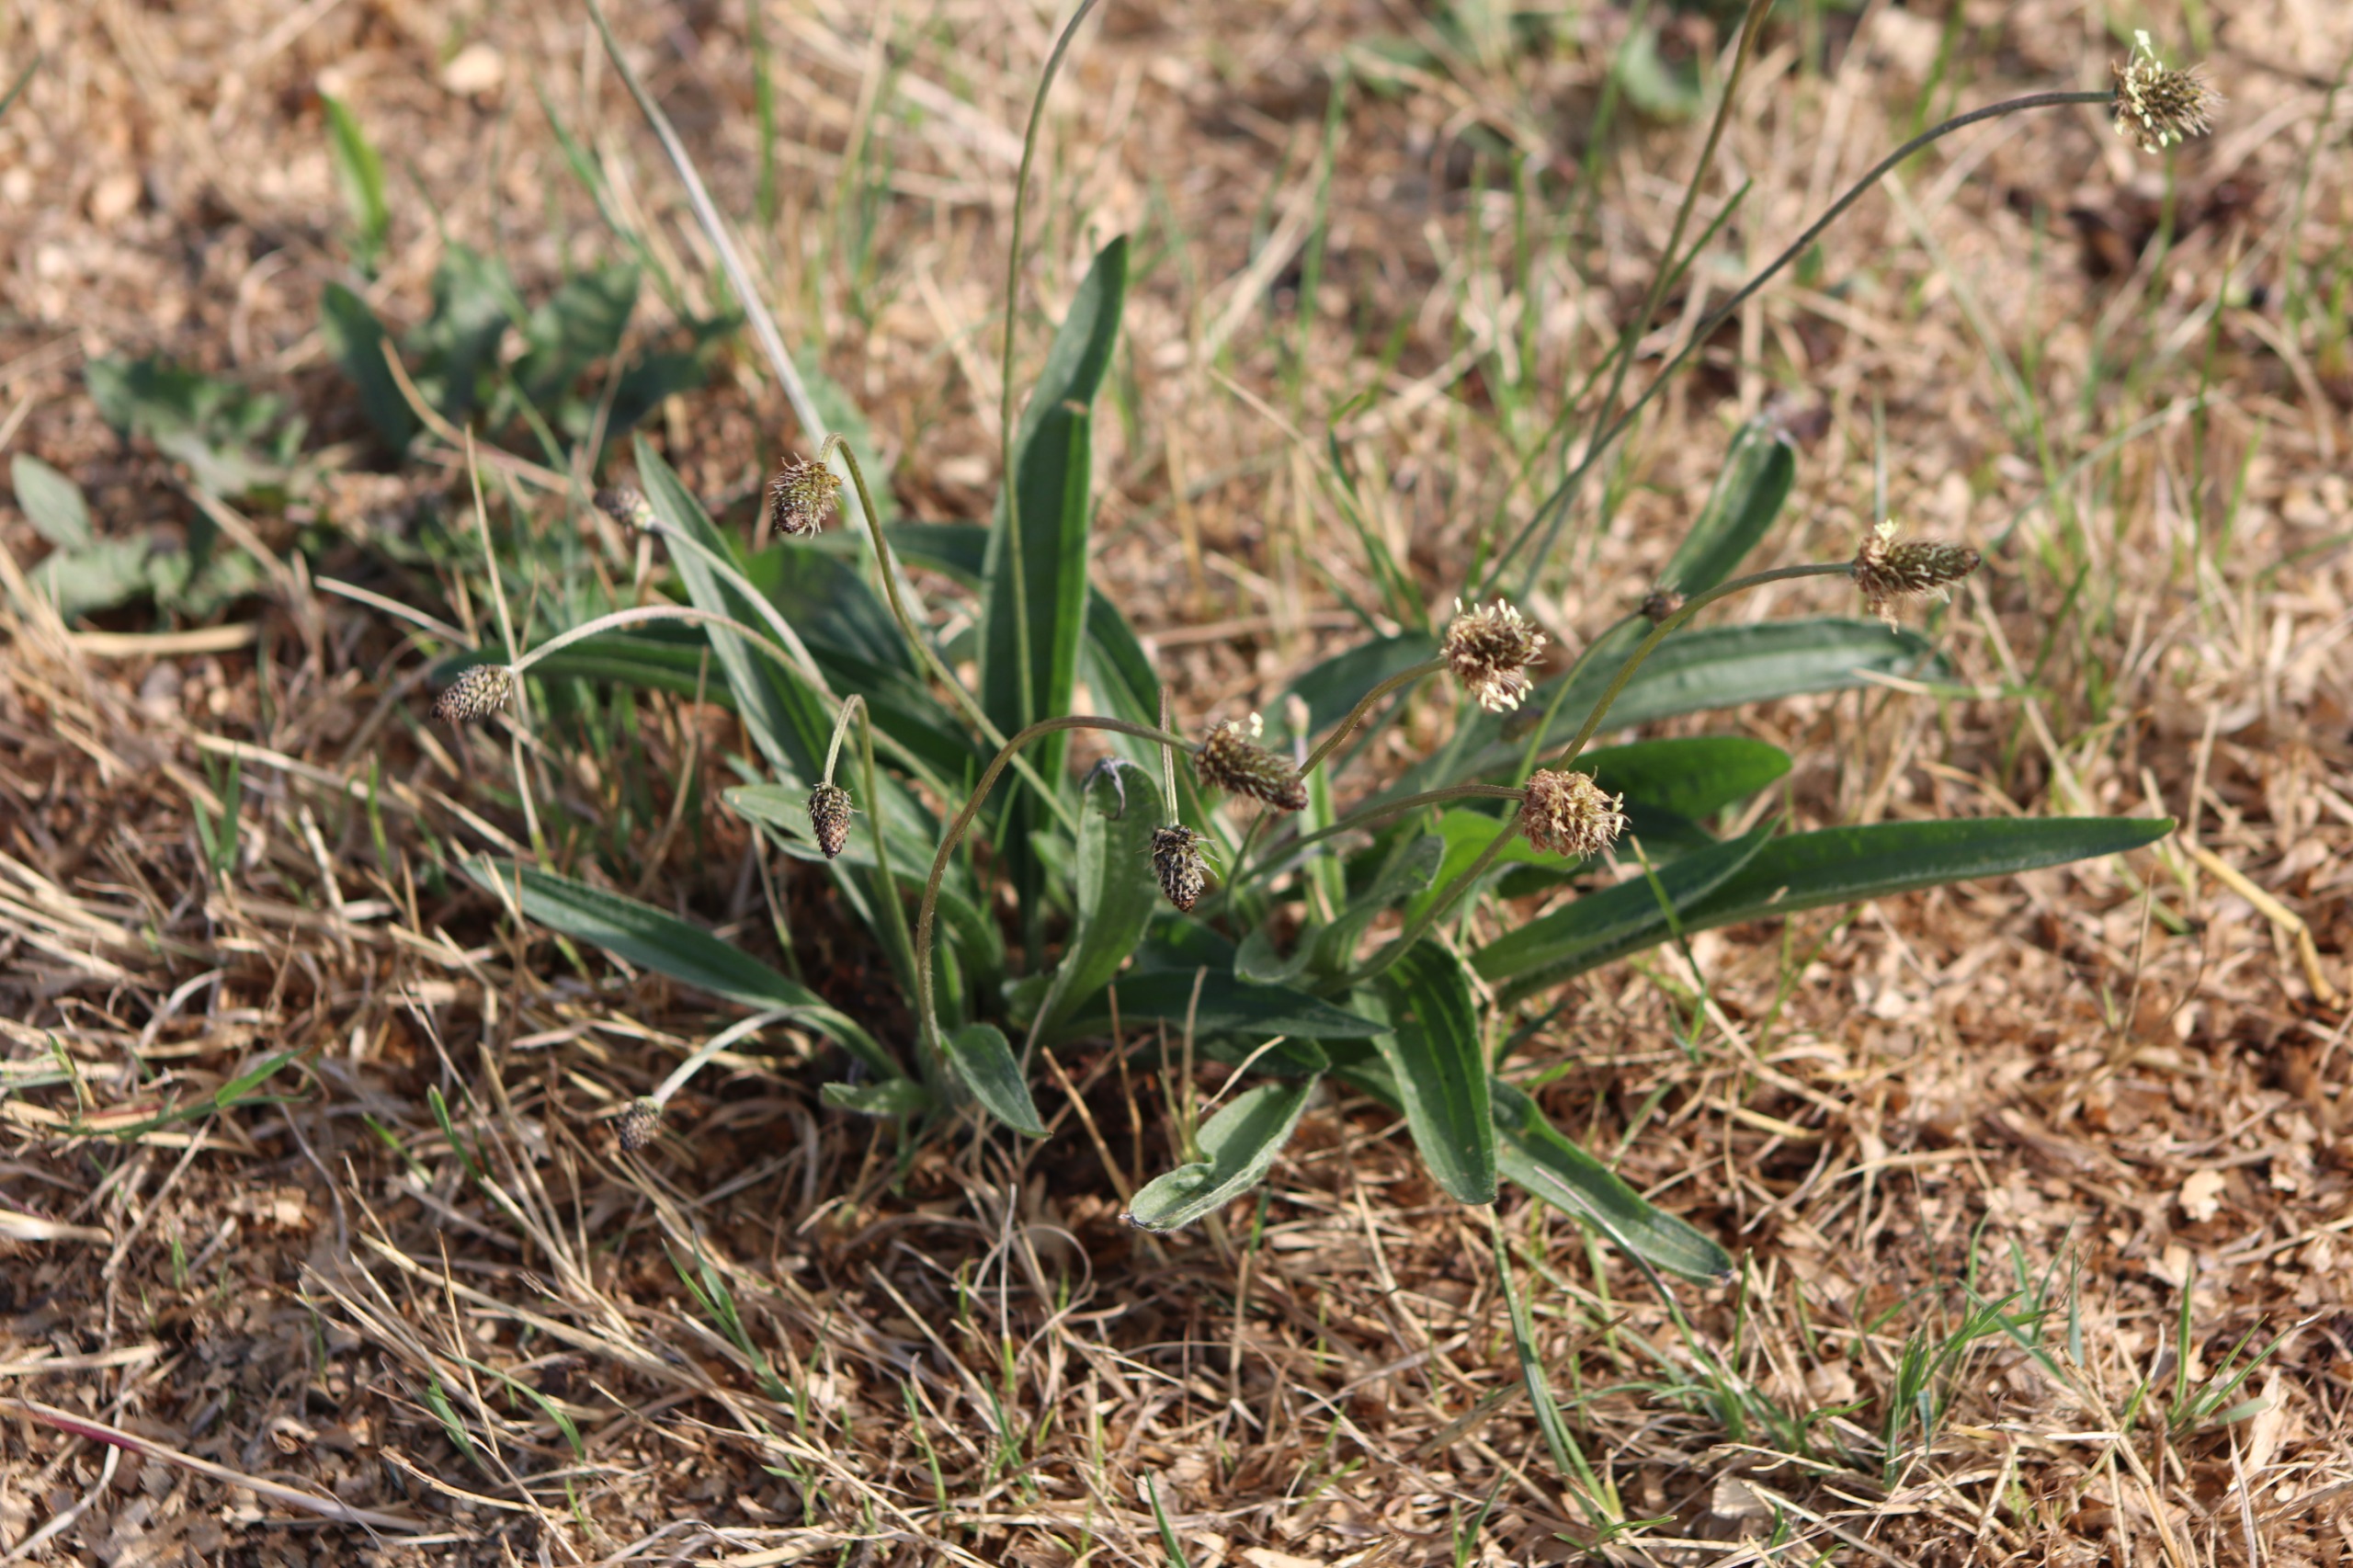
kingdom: Plantae
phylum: Tracheophyta
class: Magnoliopsida
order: Lamiales
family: Plantaginaceae
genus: Plantago
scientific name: Plantago lanceolata
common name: Lancet-vejbred
